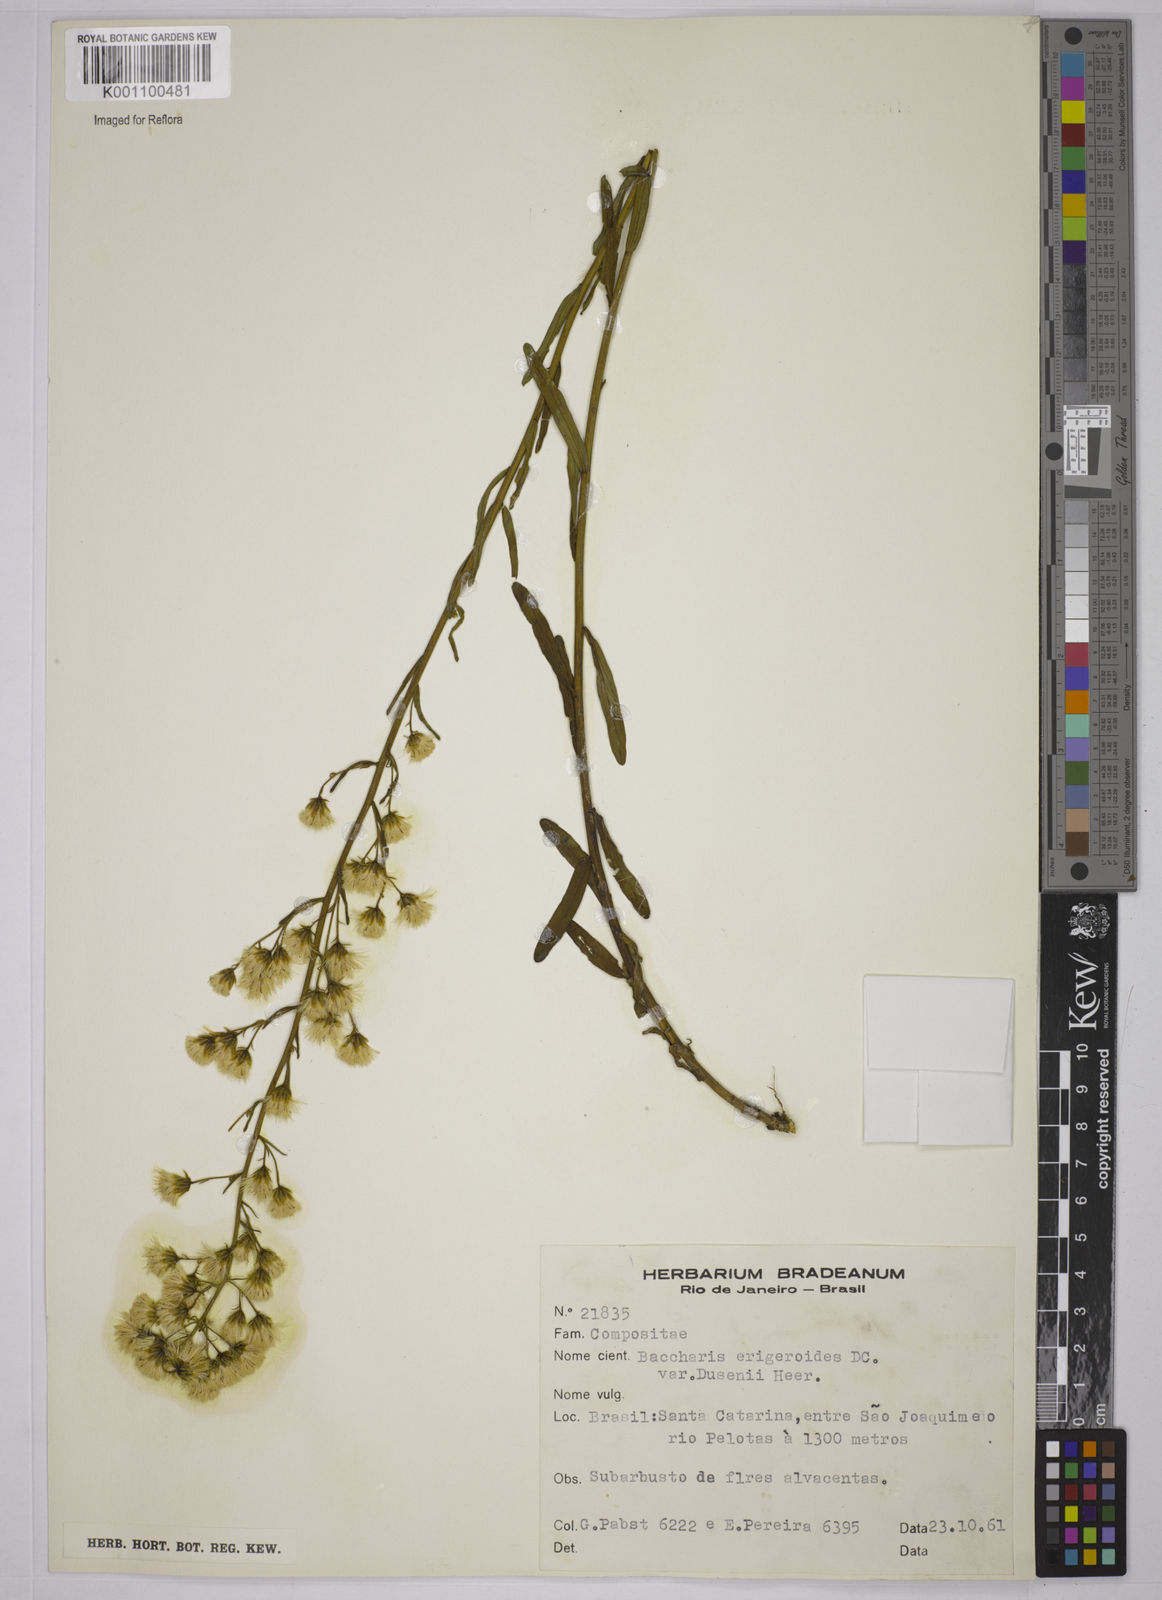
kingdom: Plantae
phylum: Tracheophyta
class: Magnoliopsida
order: Asterales
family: Asteraceae
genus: Baccharis
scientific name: Baccharis erigeroides
